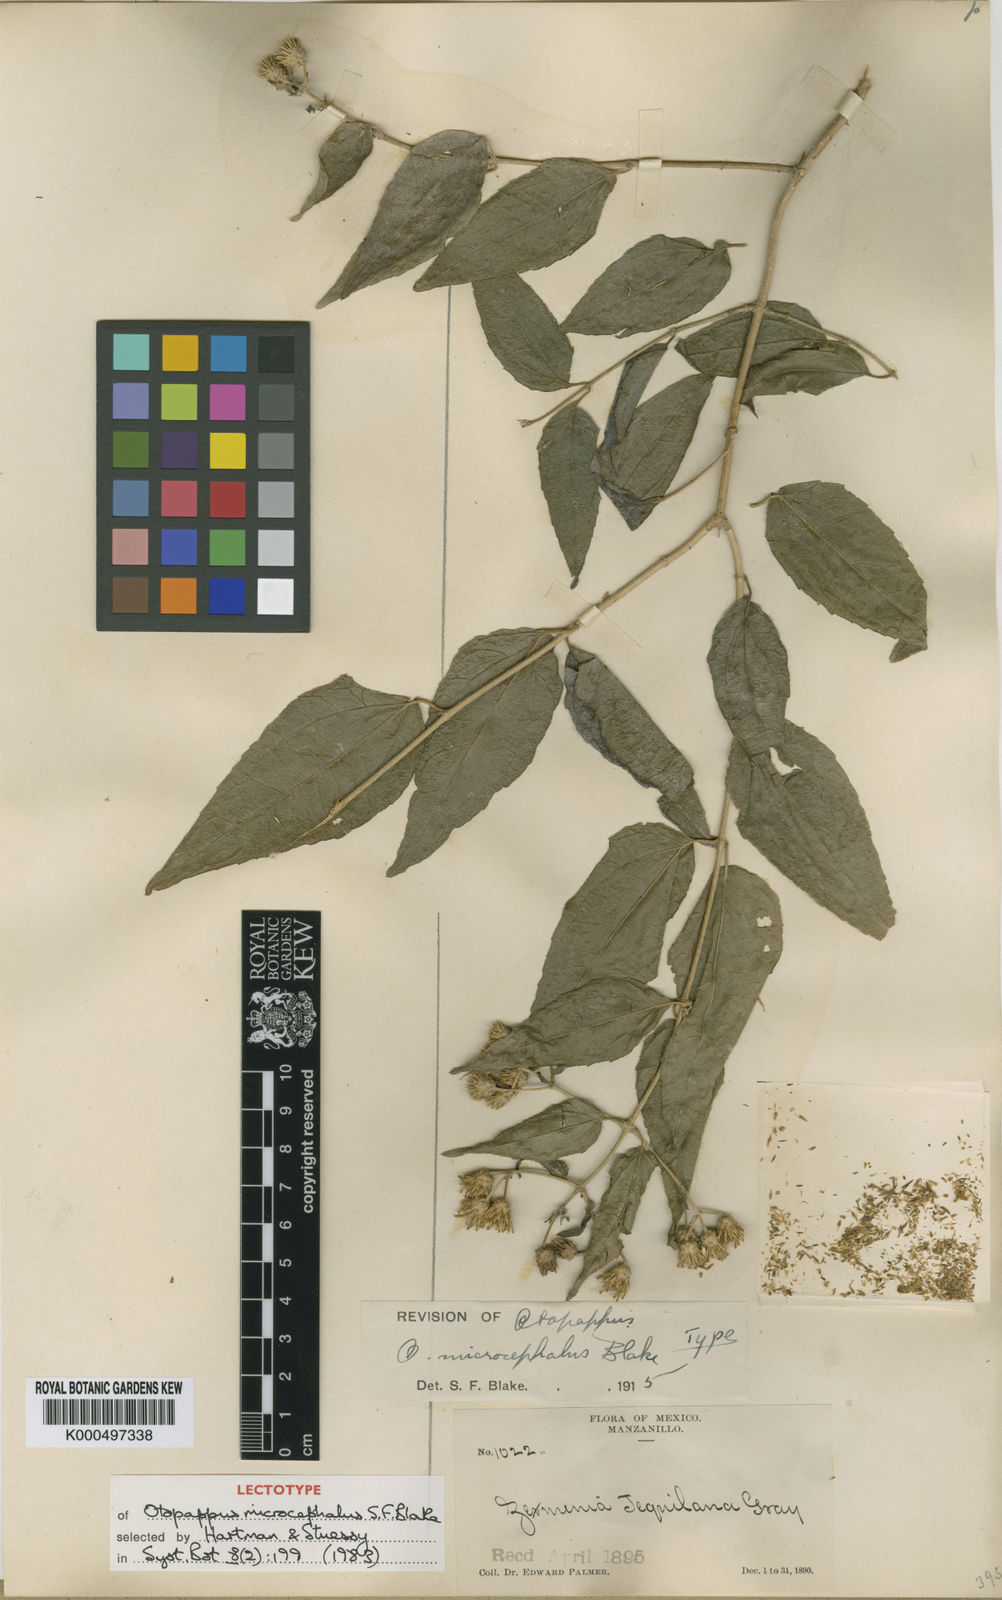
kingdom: Plantae
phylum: Tracheophyta
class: Magnoliopsida
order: Asterales
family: Asteraceae
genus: Otopappus
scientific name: Otopappus microcephalus
